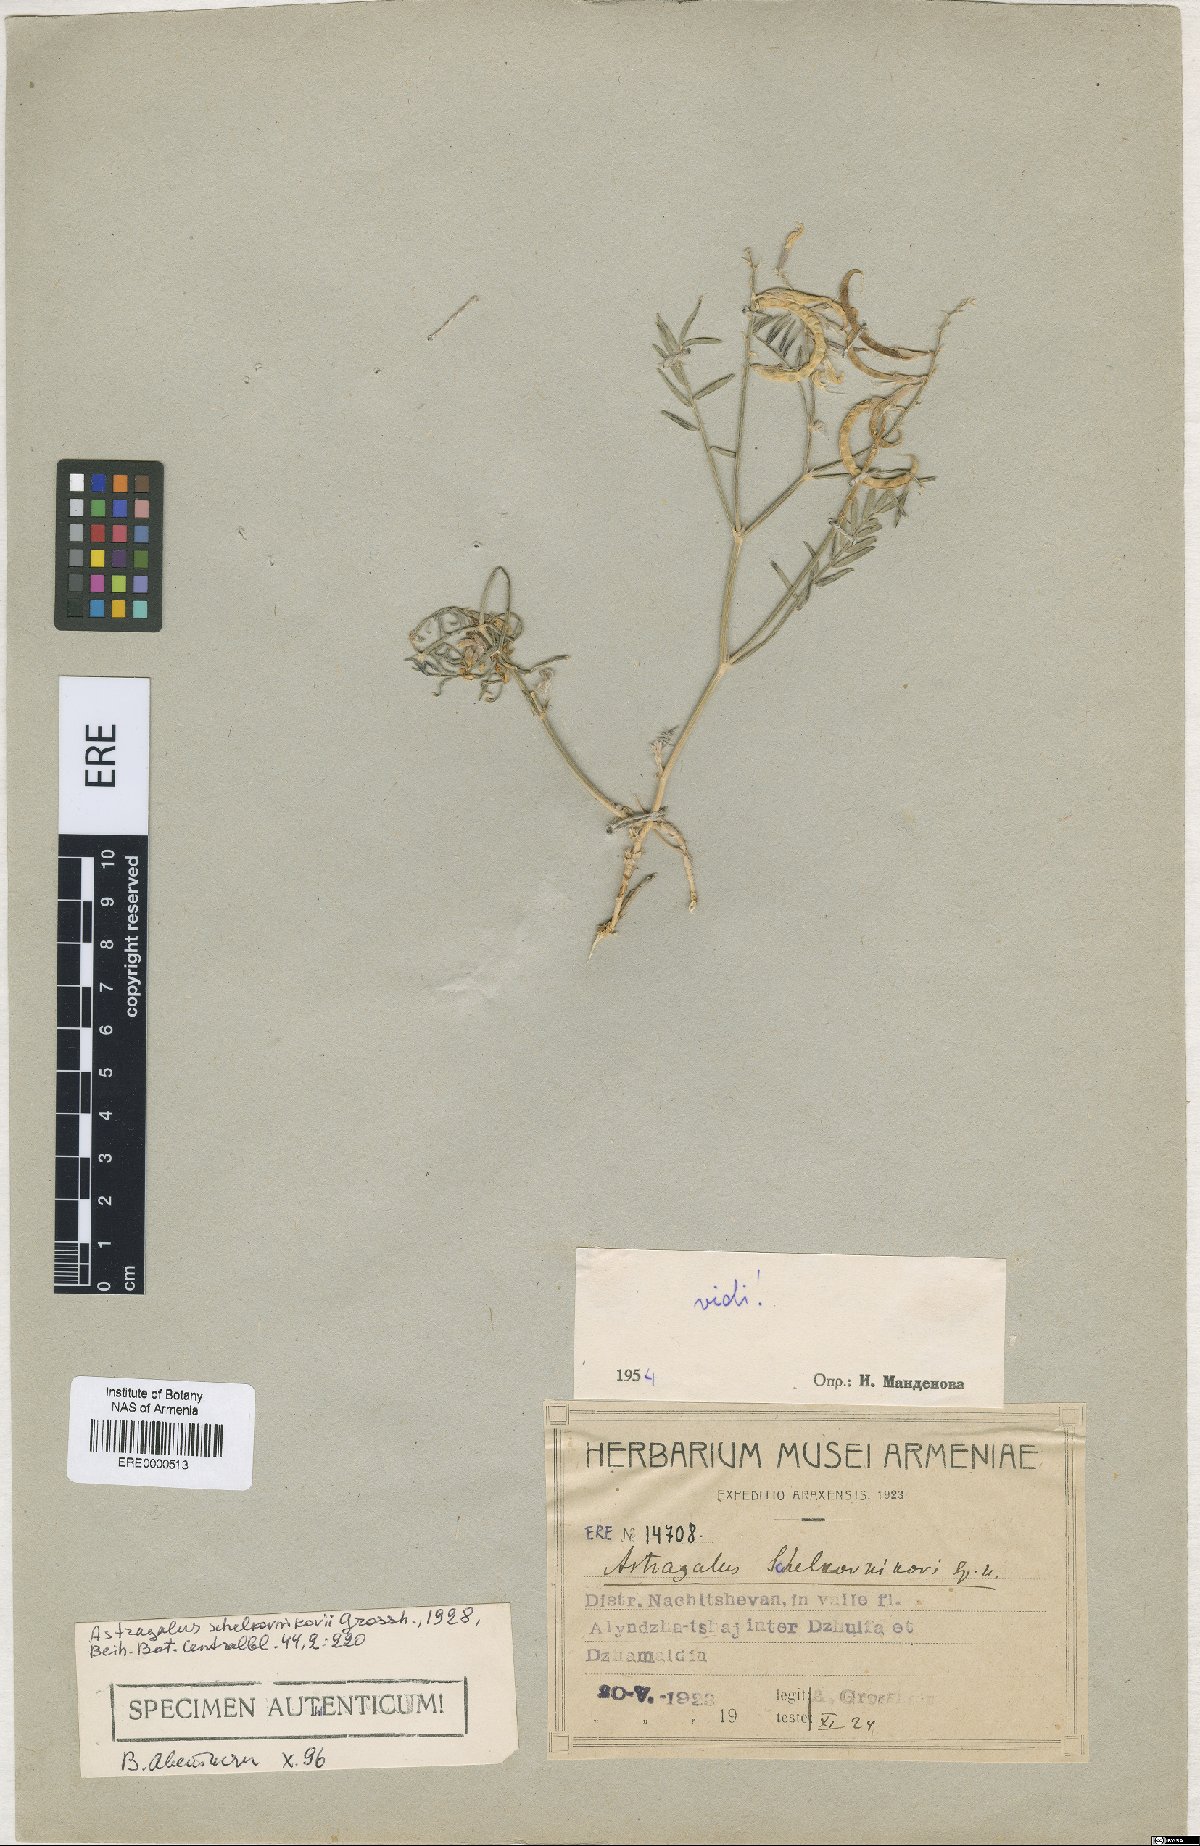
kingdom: Plantae
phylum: Tracheophyta
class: Magnoliopsida
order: Fabales
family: Fabaceae
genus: Astragalus
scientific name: Astragalus shelkovnikovii
